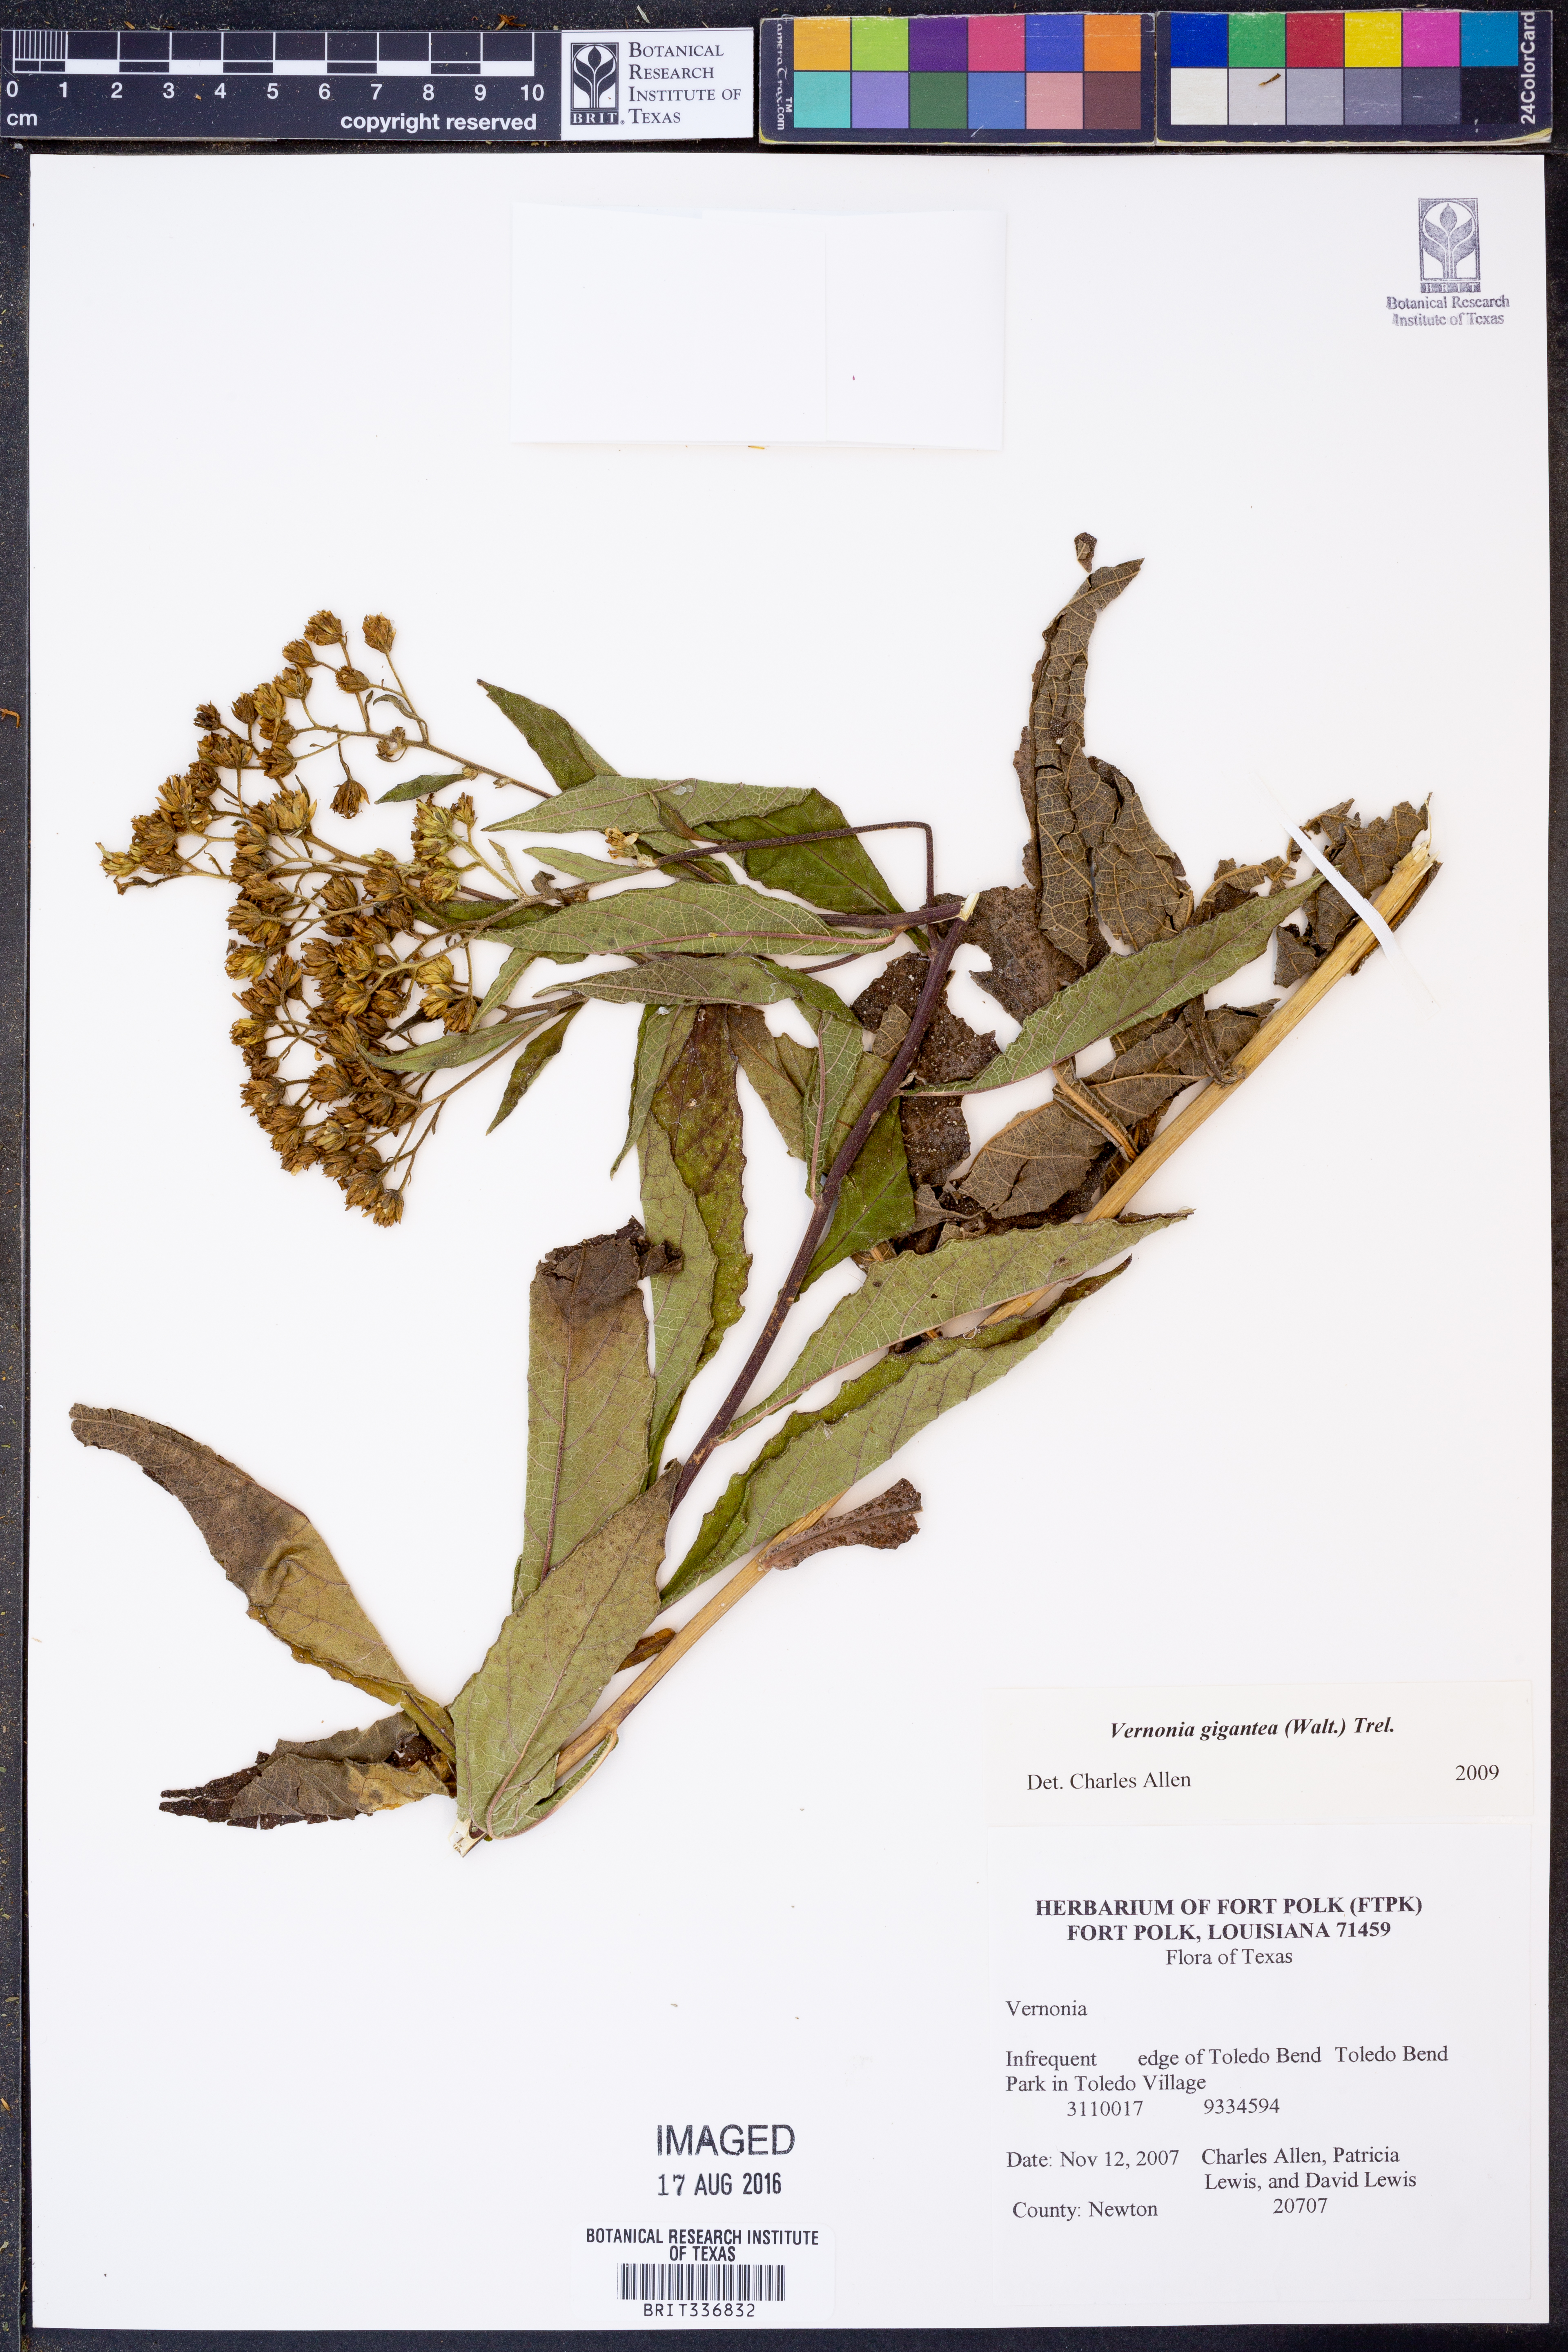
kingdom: Plantae
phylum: Tracheophyta
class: Magnoliopsida
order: Asterales
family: Asteraceae
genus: Vernonia
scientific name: Vernonia gigantea
